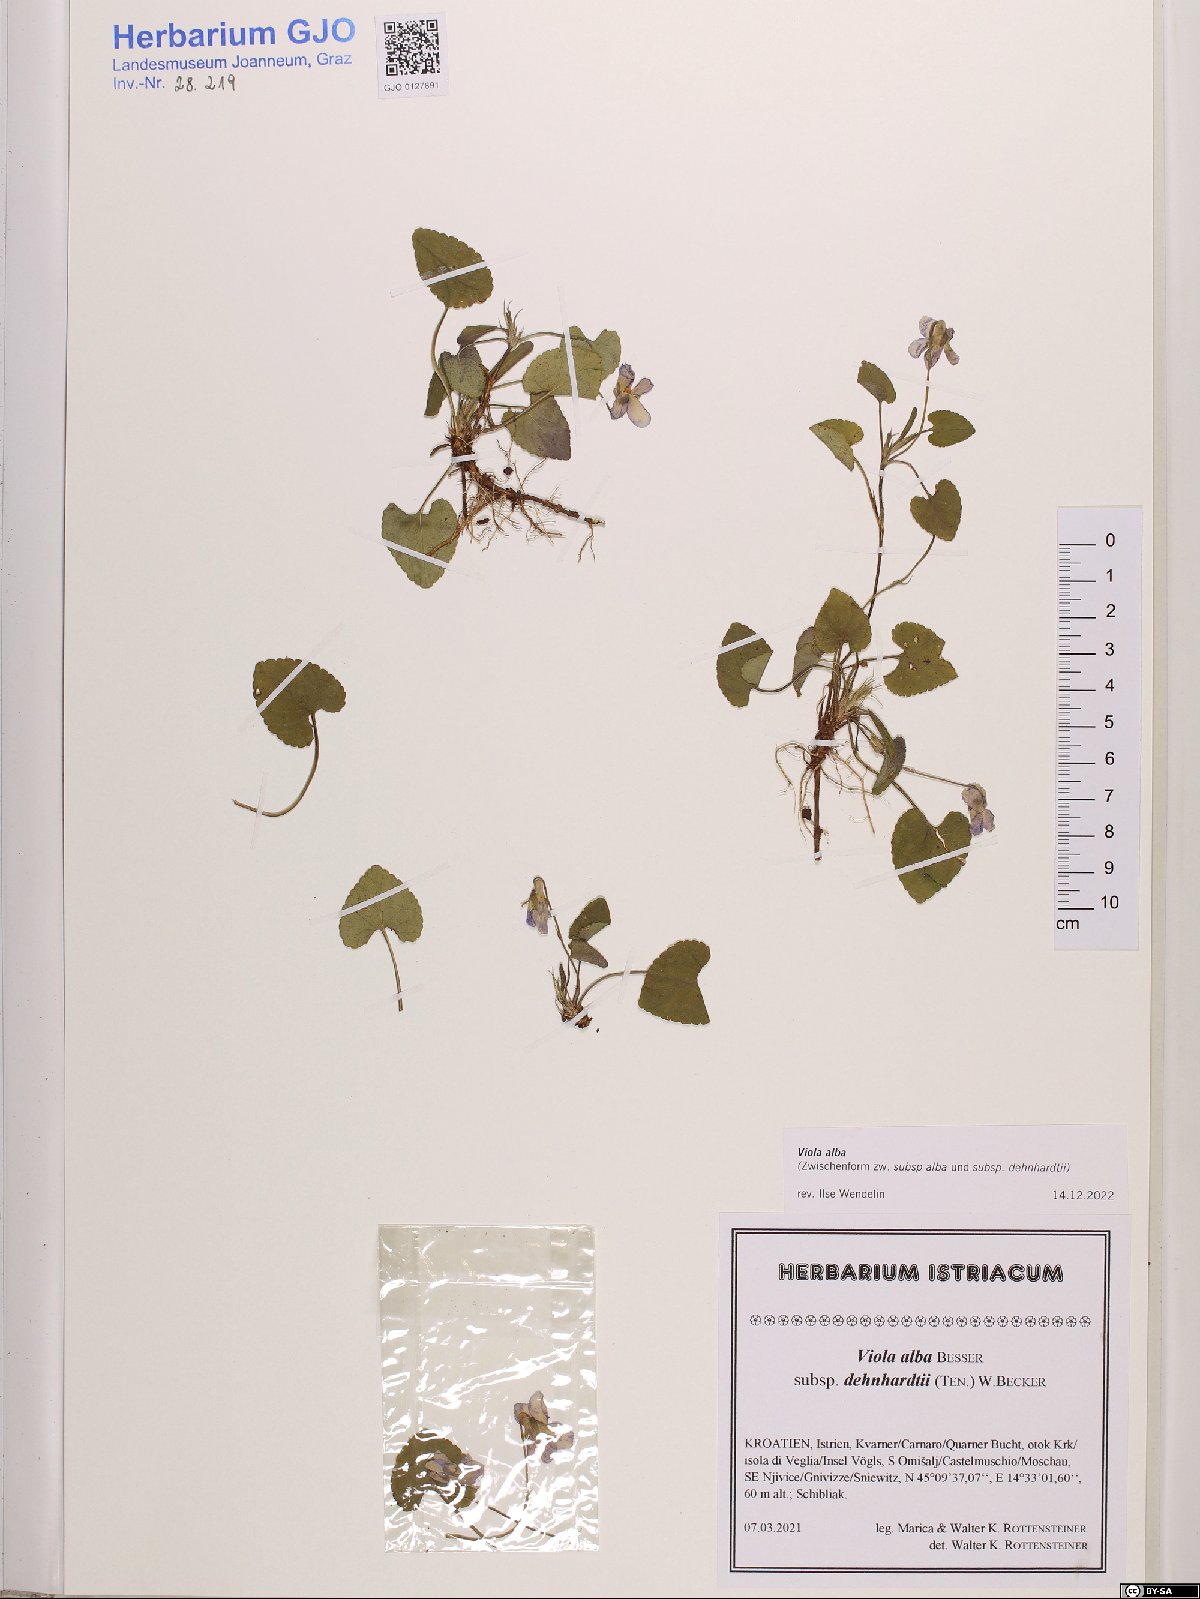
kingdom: Plantae
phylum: Tracheophyta
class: Magnoliopsida
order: Malpighiales
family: Violaceae
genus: Viola
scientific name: Viola alba
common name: White violet
